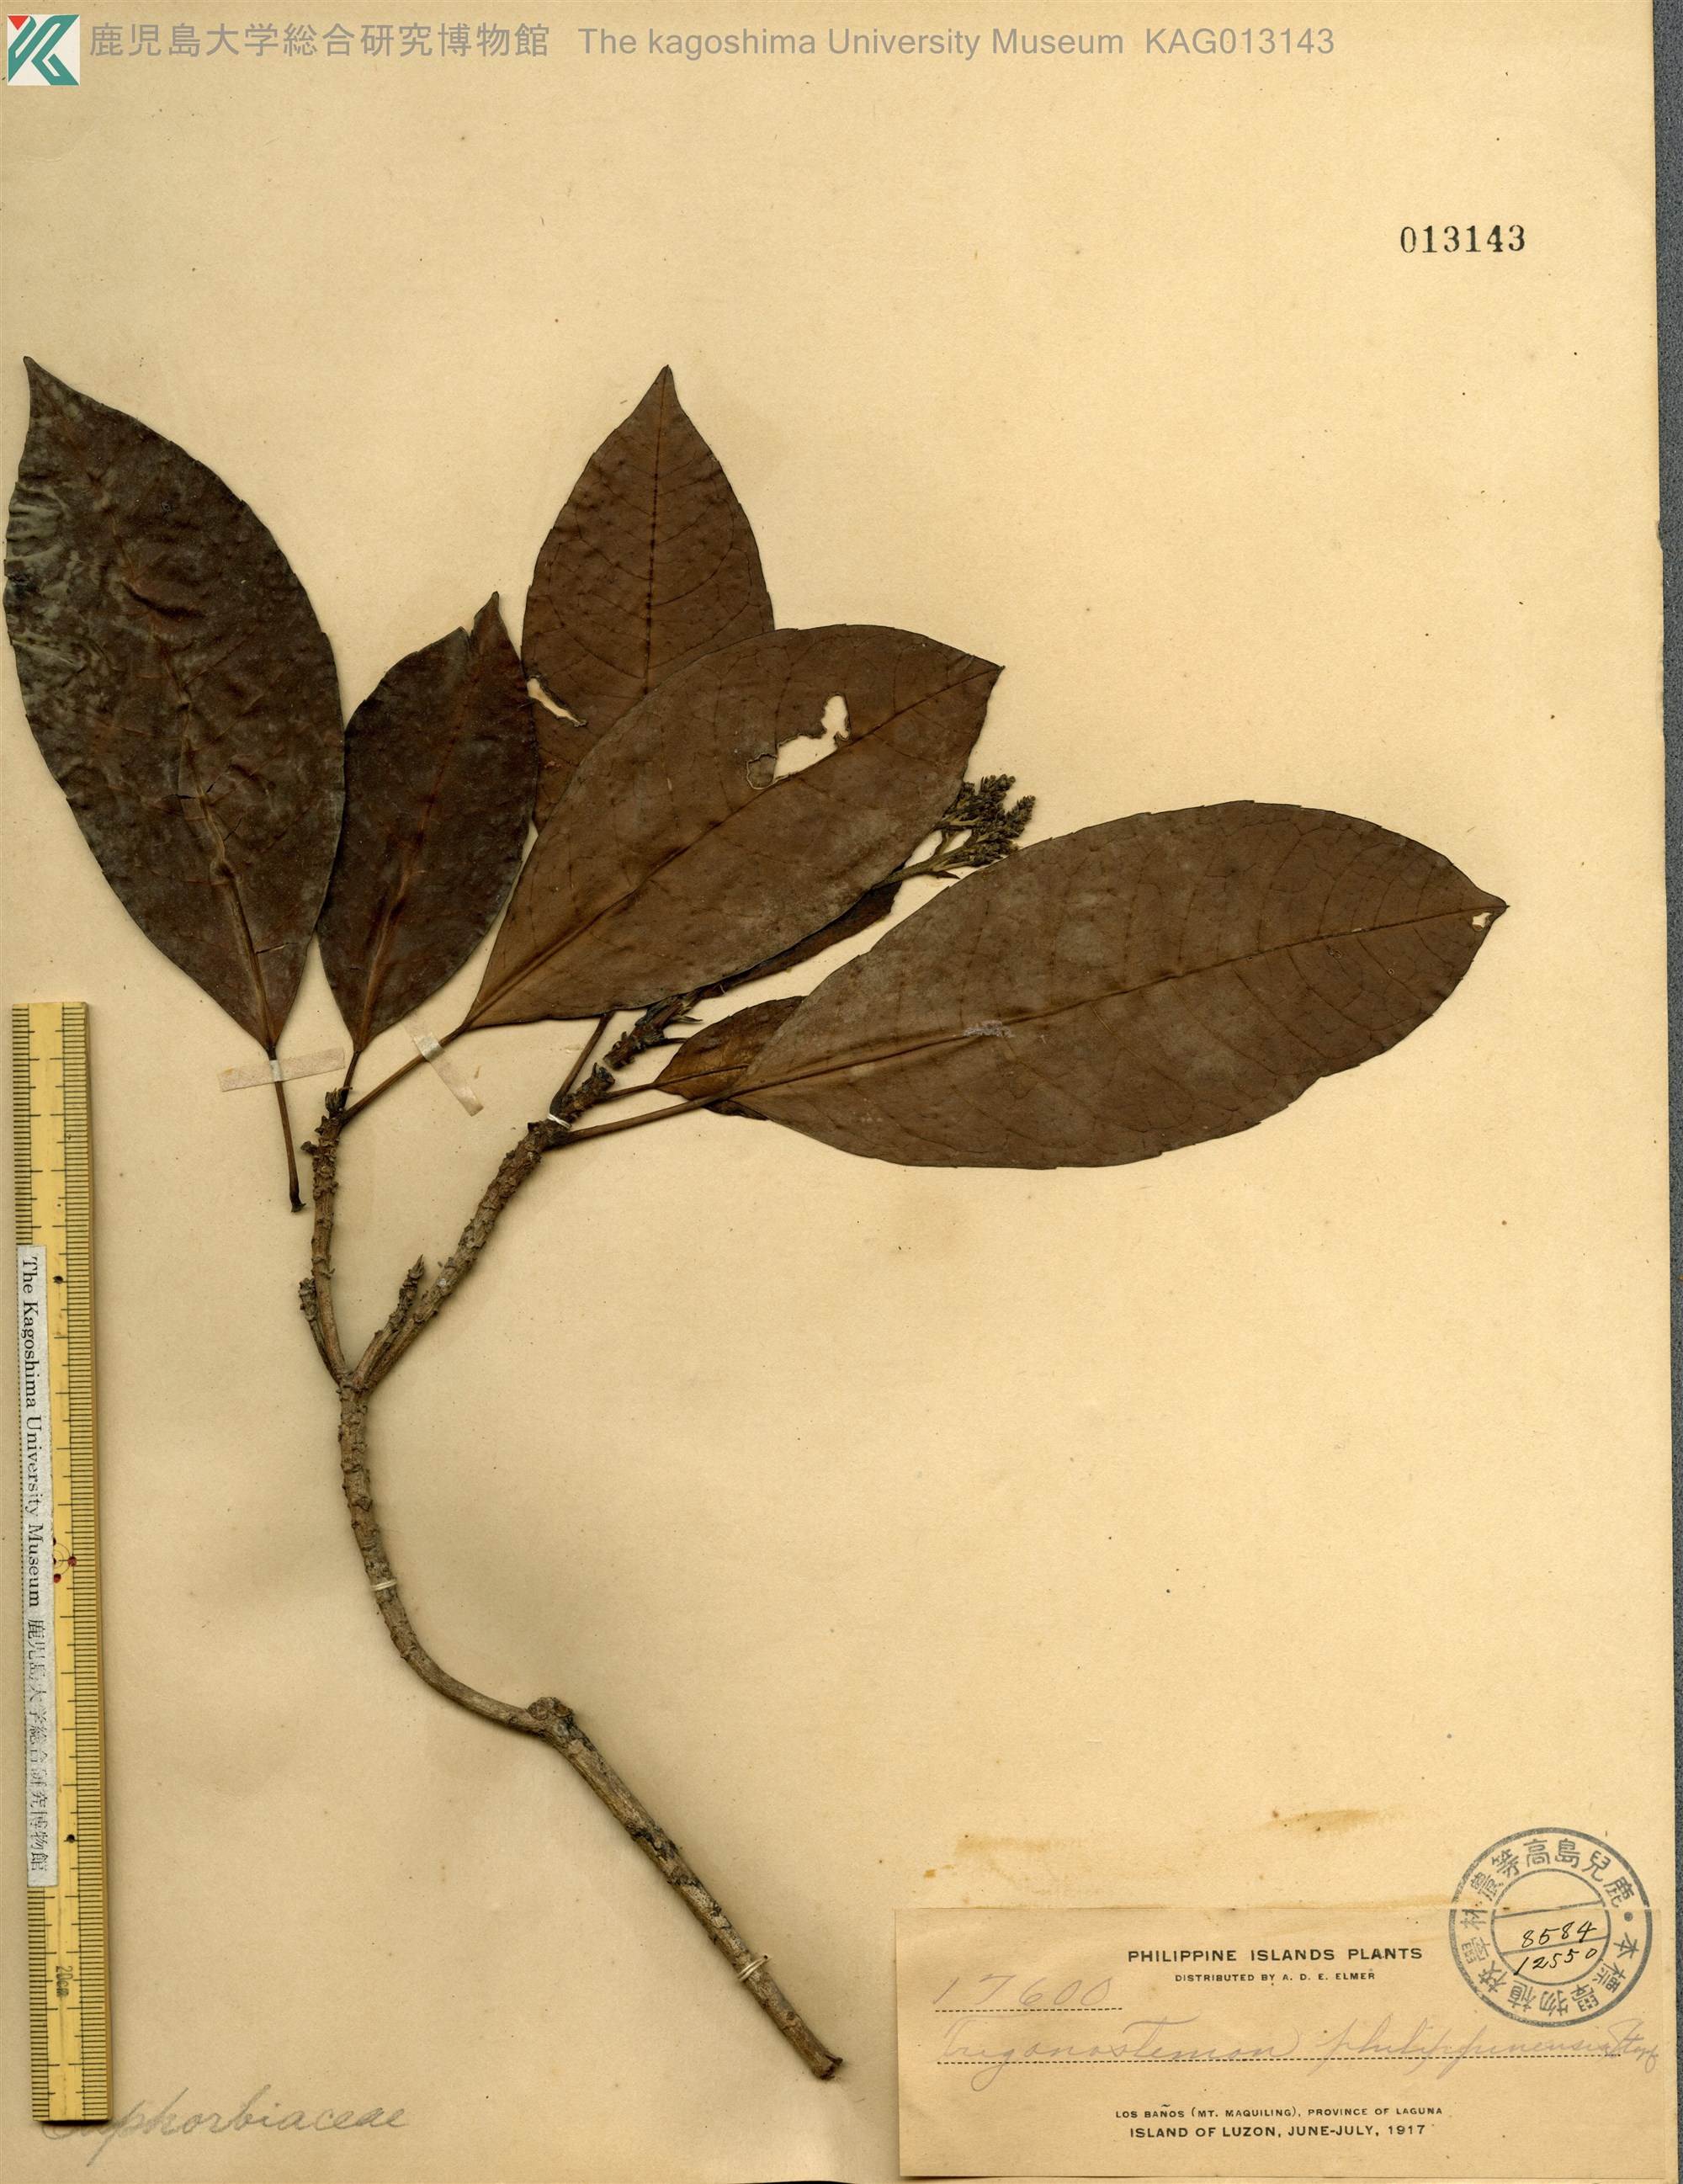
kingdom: Plantae
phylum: Tracheophyta
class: Magnoliopsida
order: Malpighiales
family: Euphorbiaceae
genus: Trigonostemon
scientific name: Trigonostemon philippinensis
